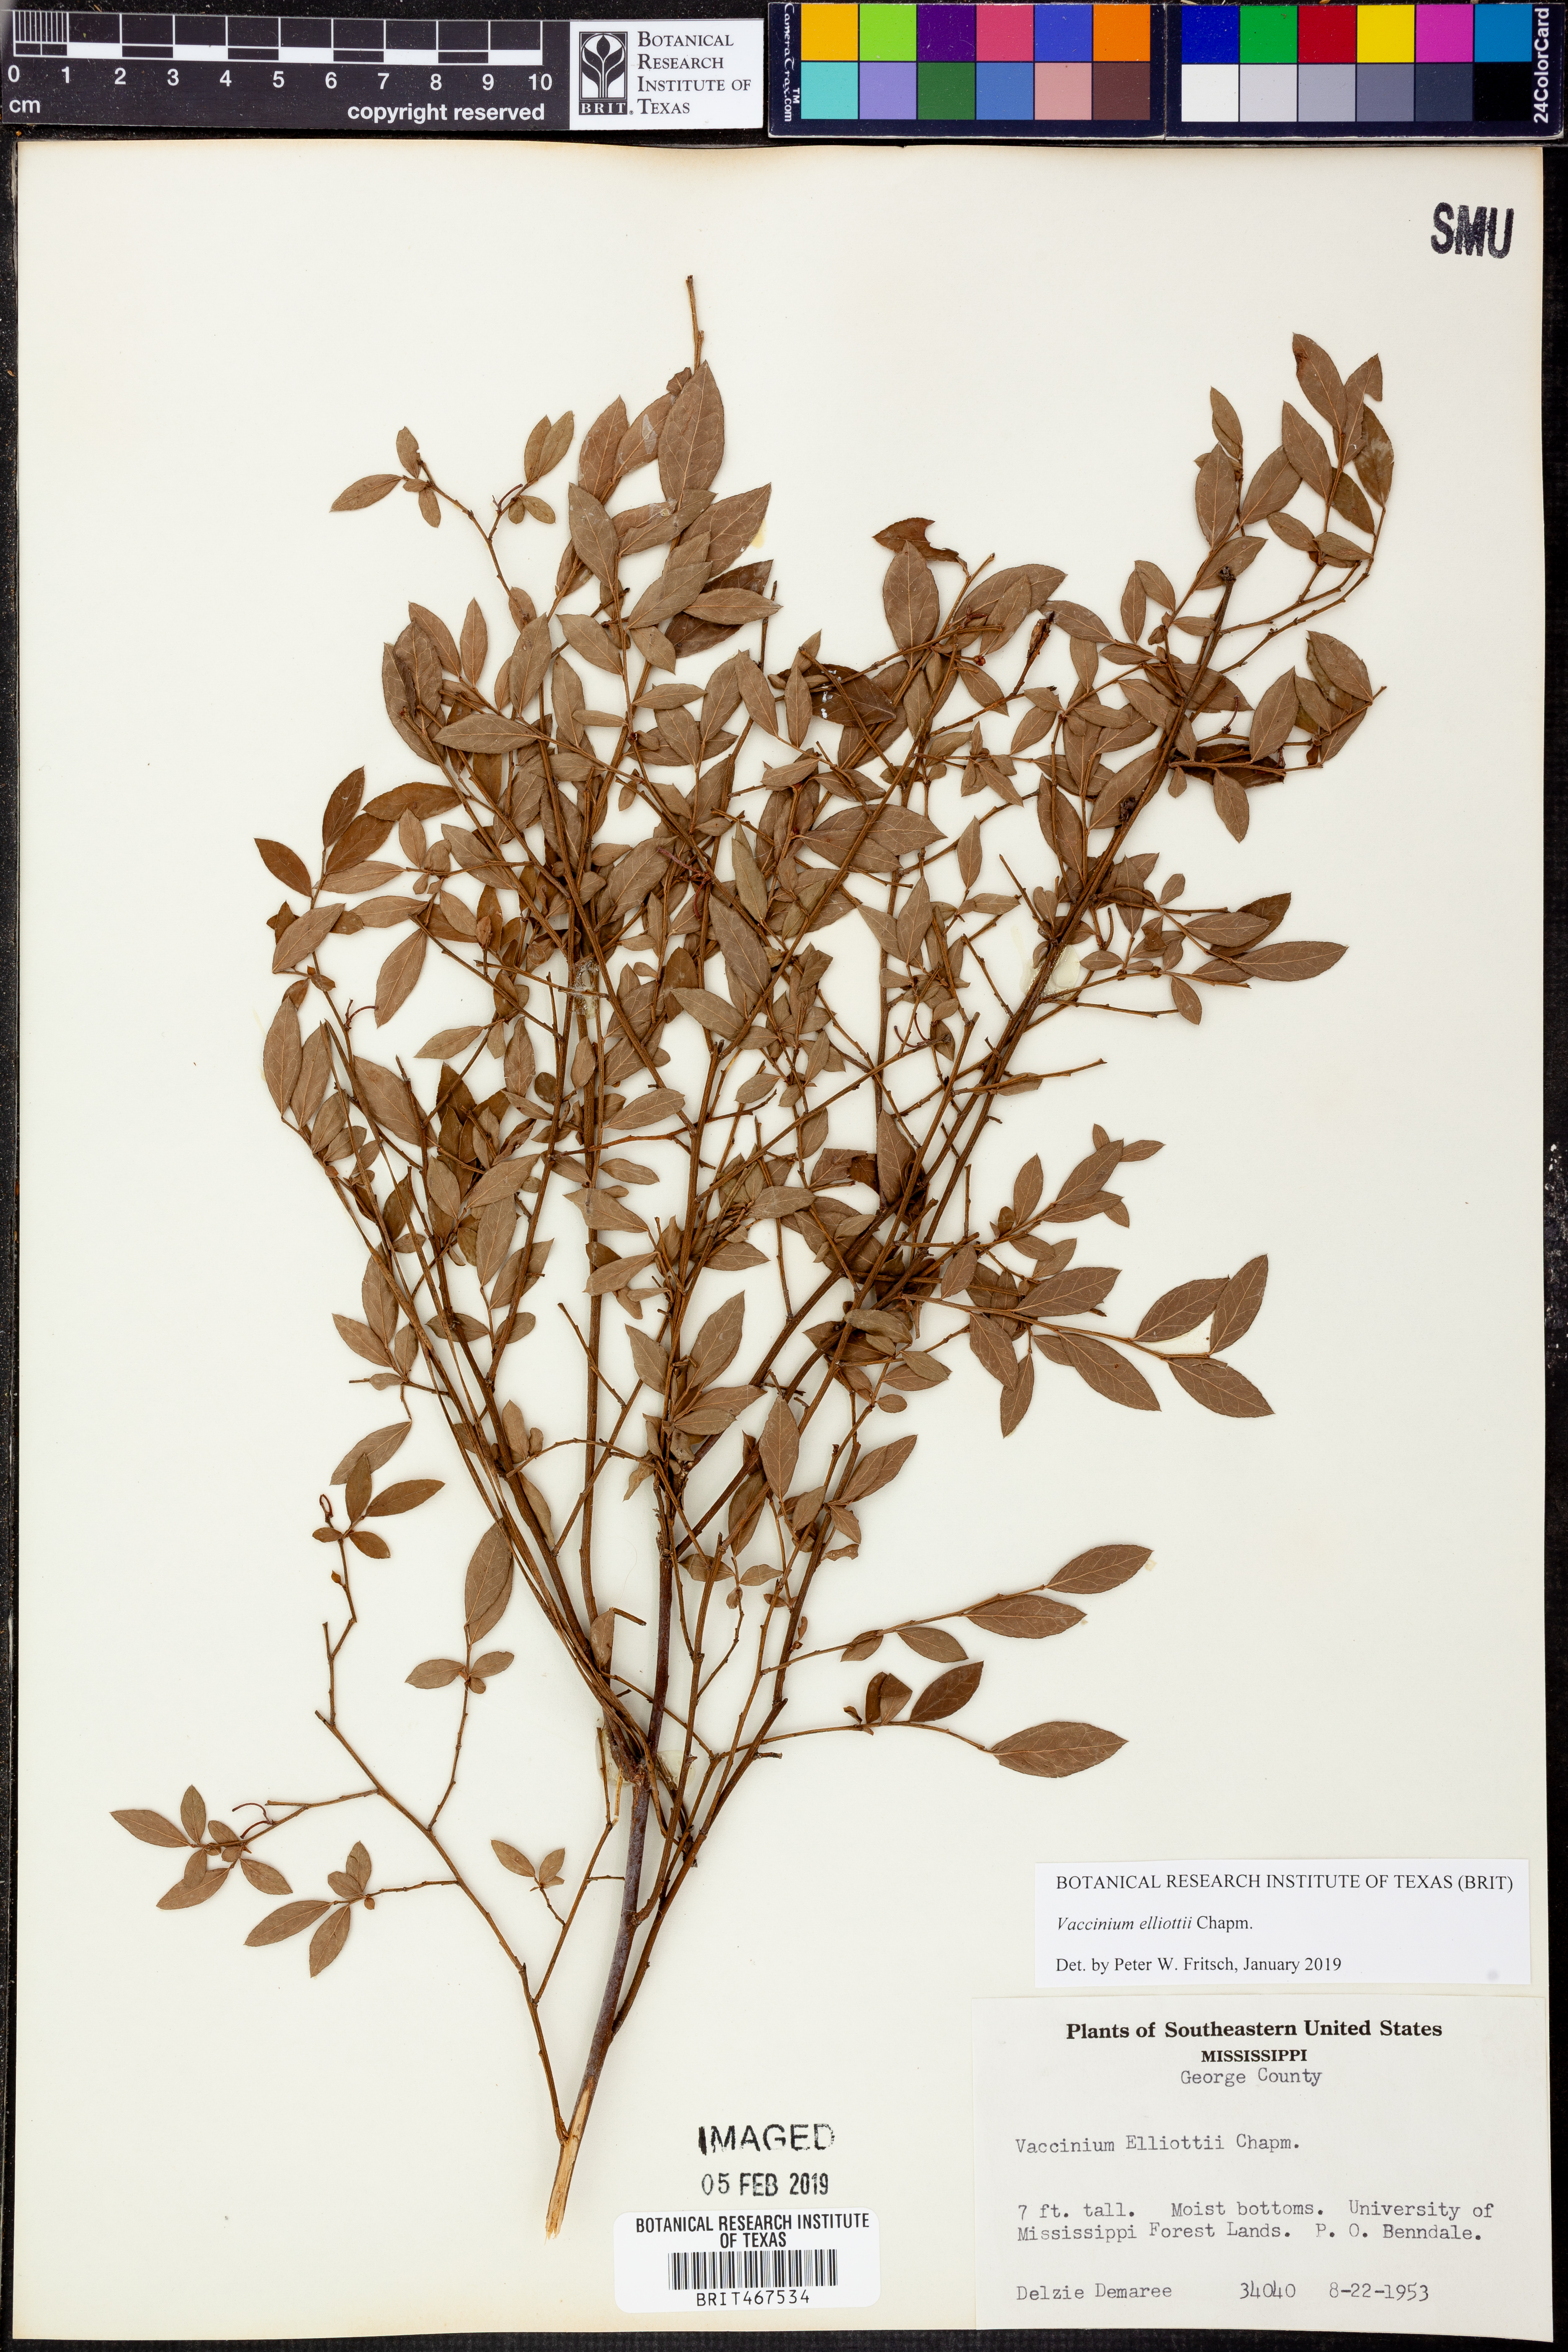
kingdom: Plantae
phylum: Tracheophyta
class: Magnoliopsida
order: Ericales
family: Ericaceae
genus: Vaccinium
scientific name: Vaccinium corymbosum
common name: Blueberry
